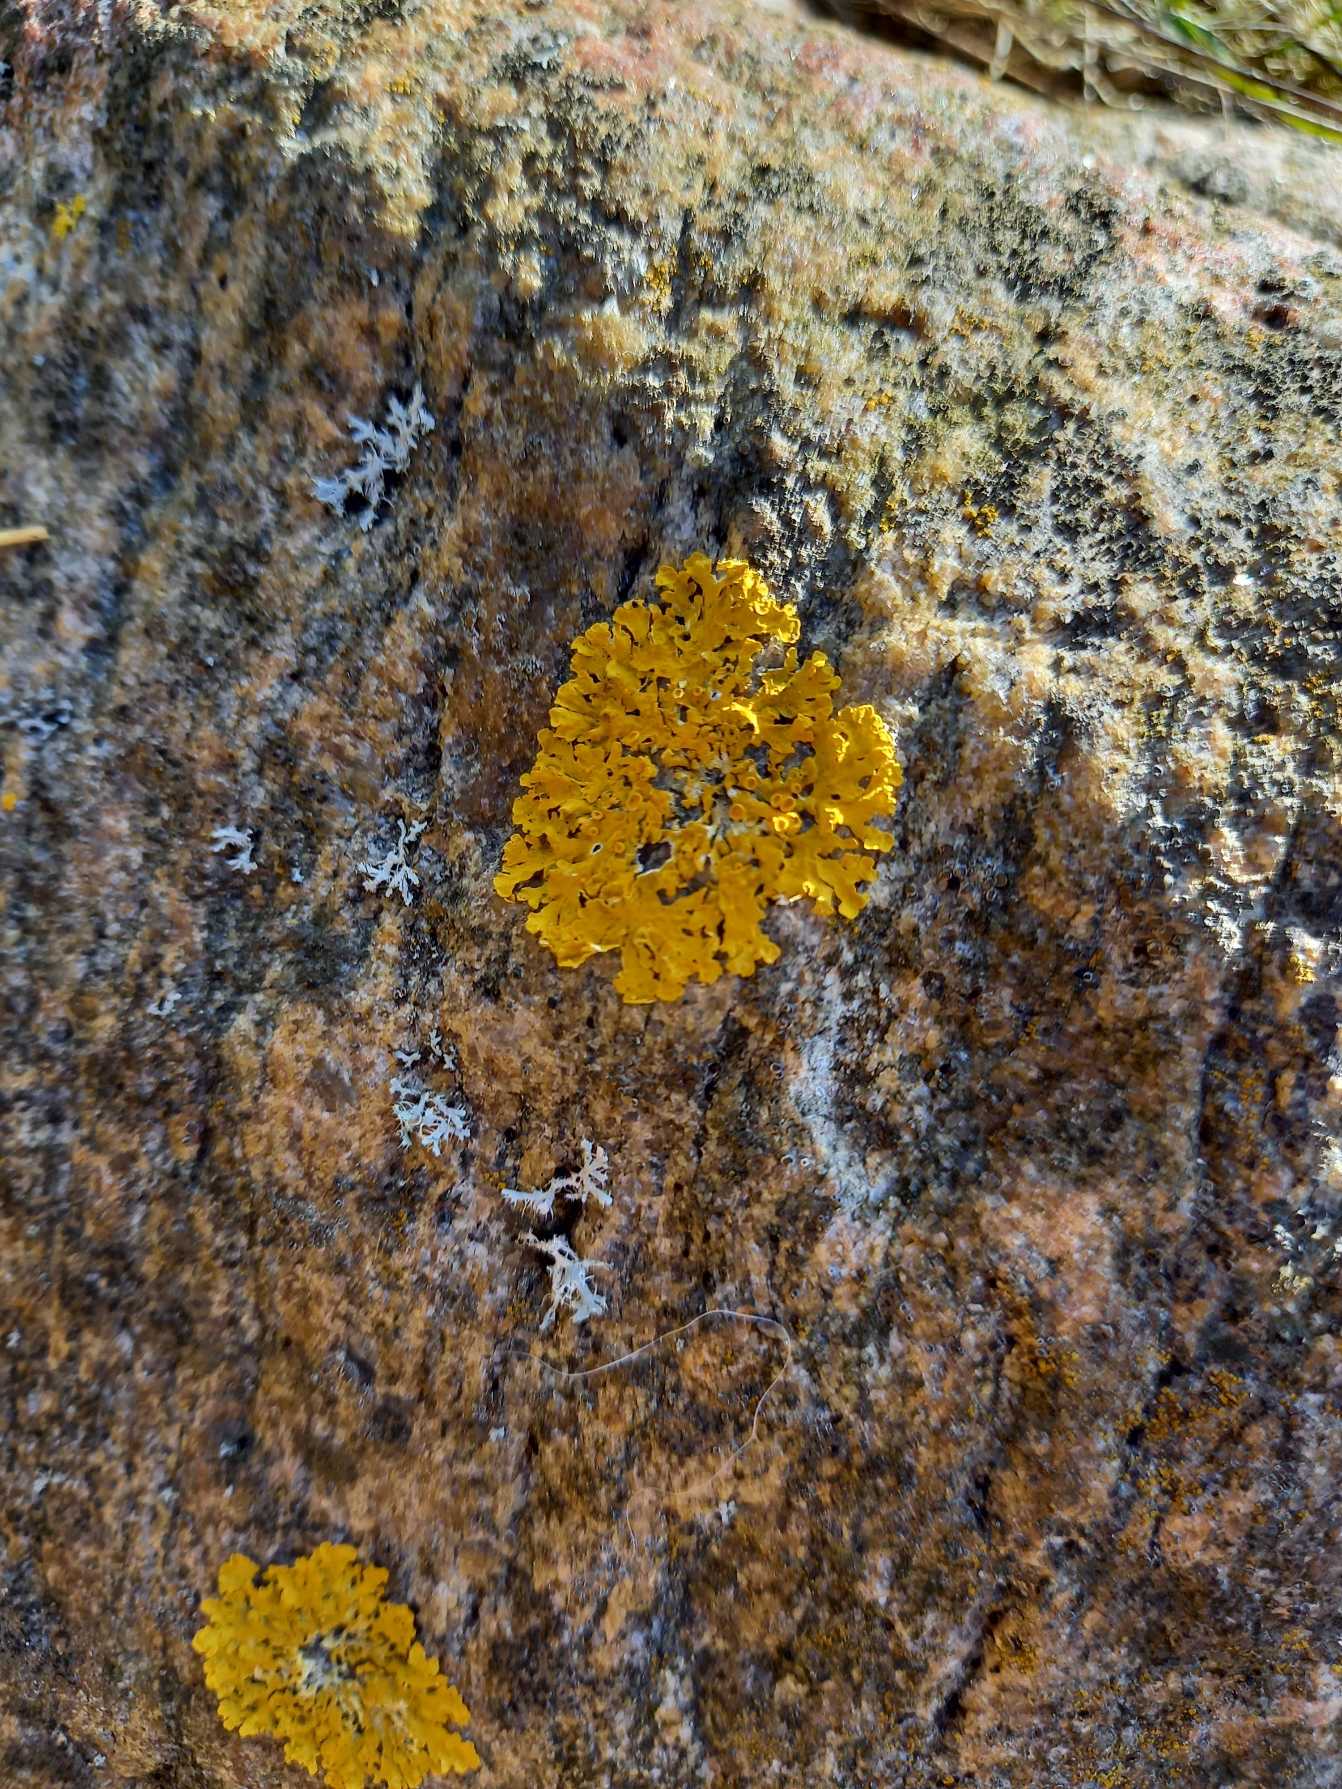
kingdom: Fungi
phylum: Ascomycota
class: Lecanoromycetes
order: Teloschistales
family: Teloschistaceae
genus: Xanthoria
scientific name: Xanthoria parietina
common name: Almindelig væggelav
